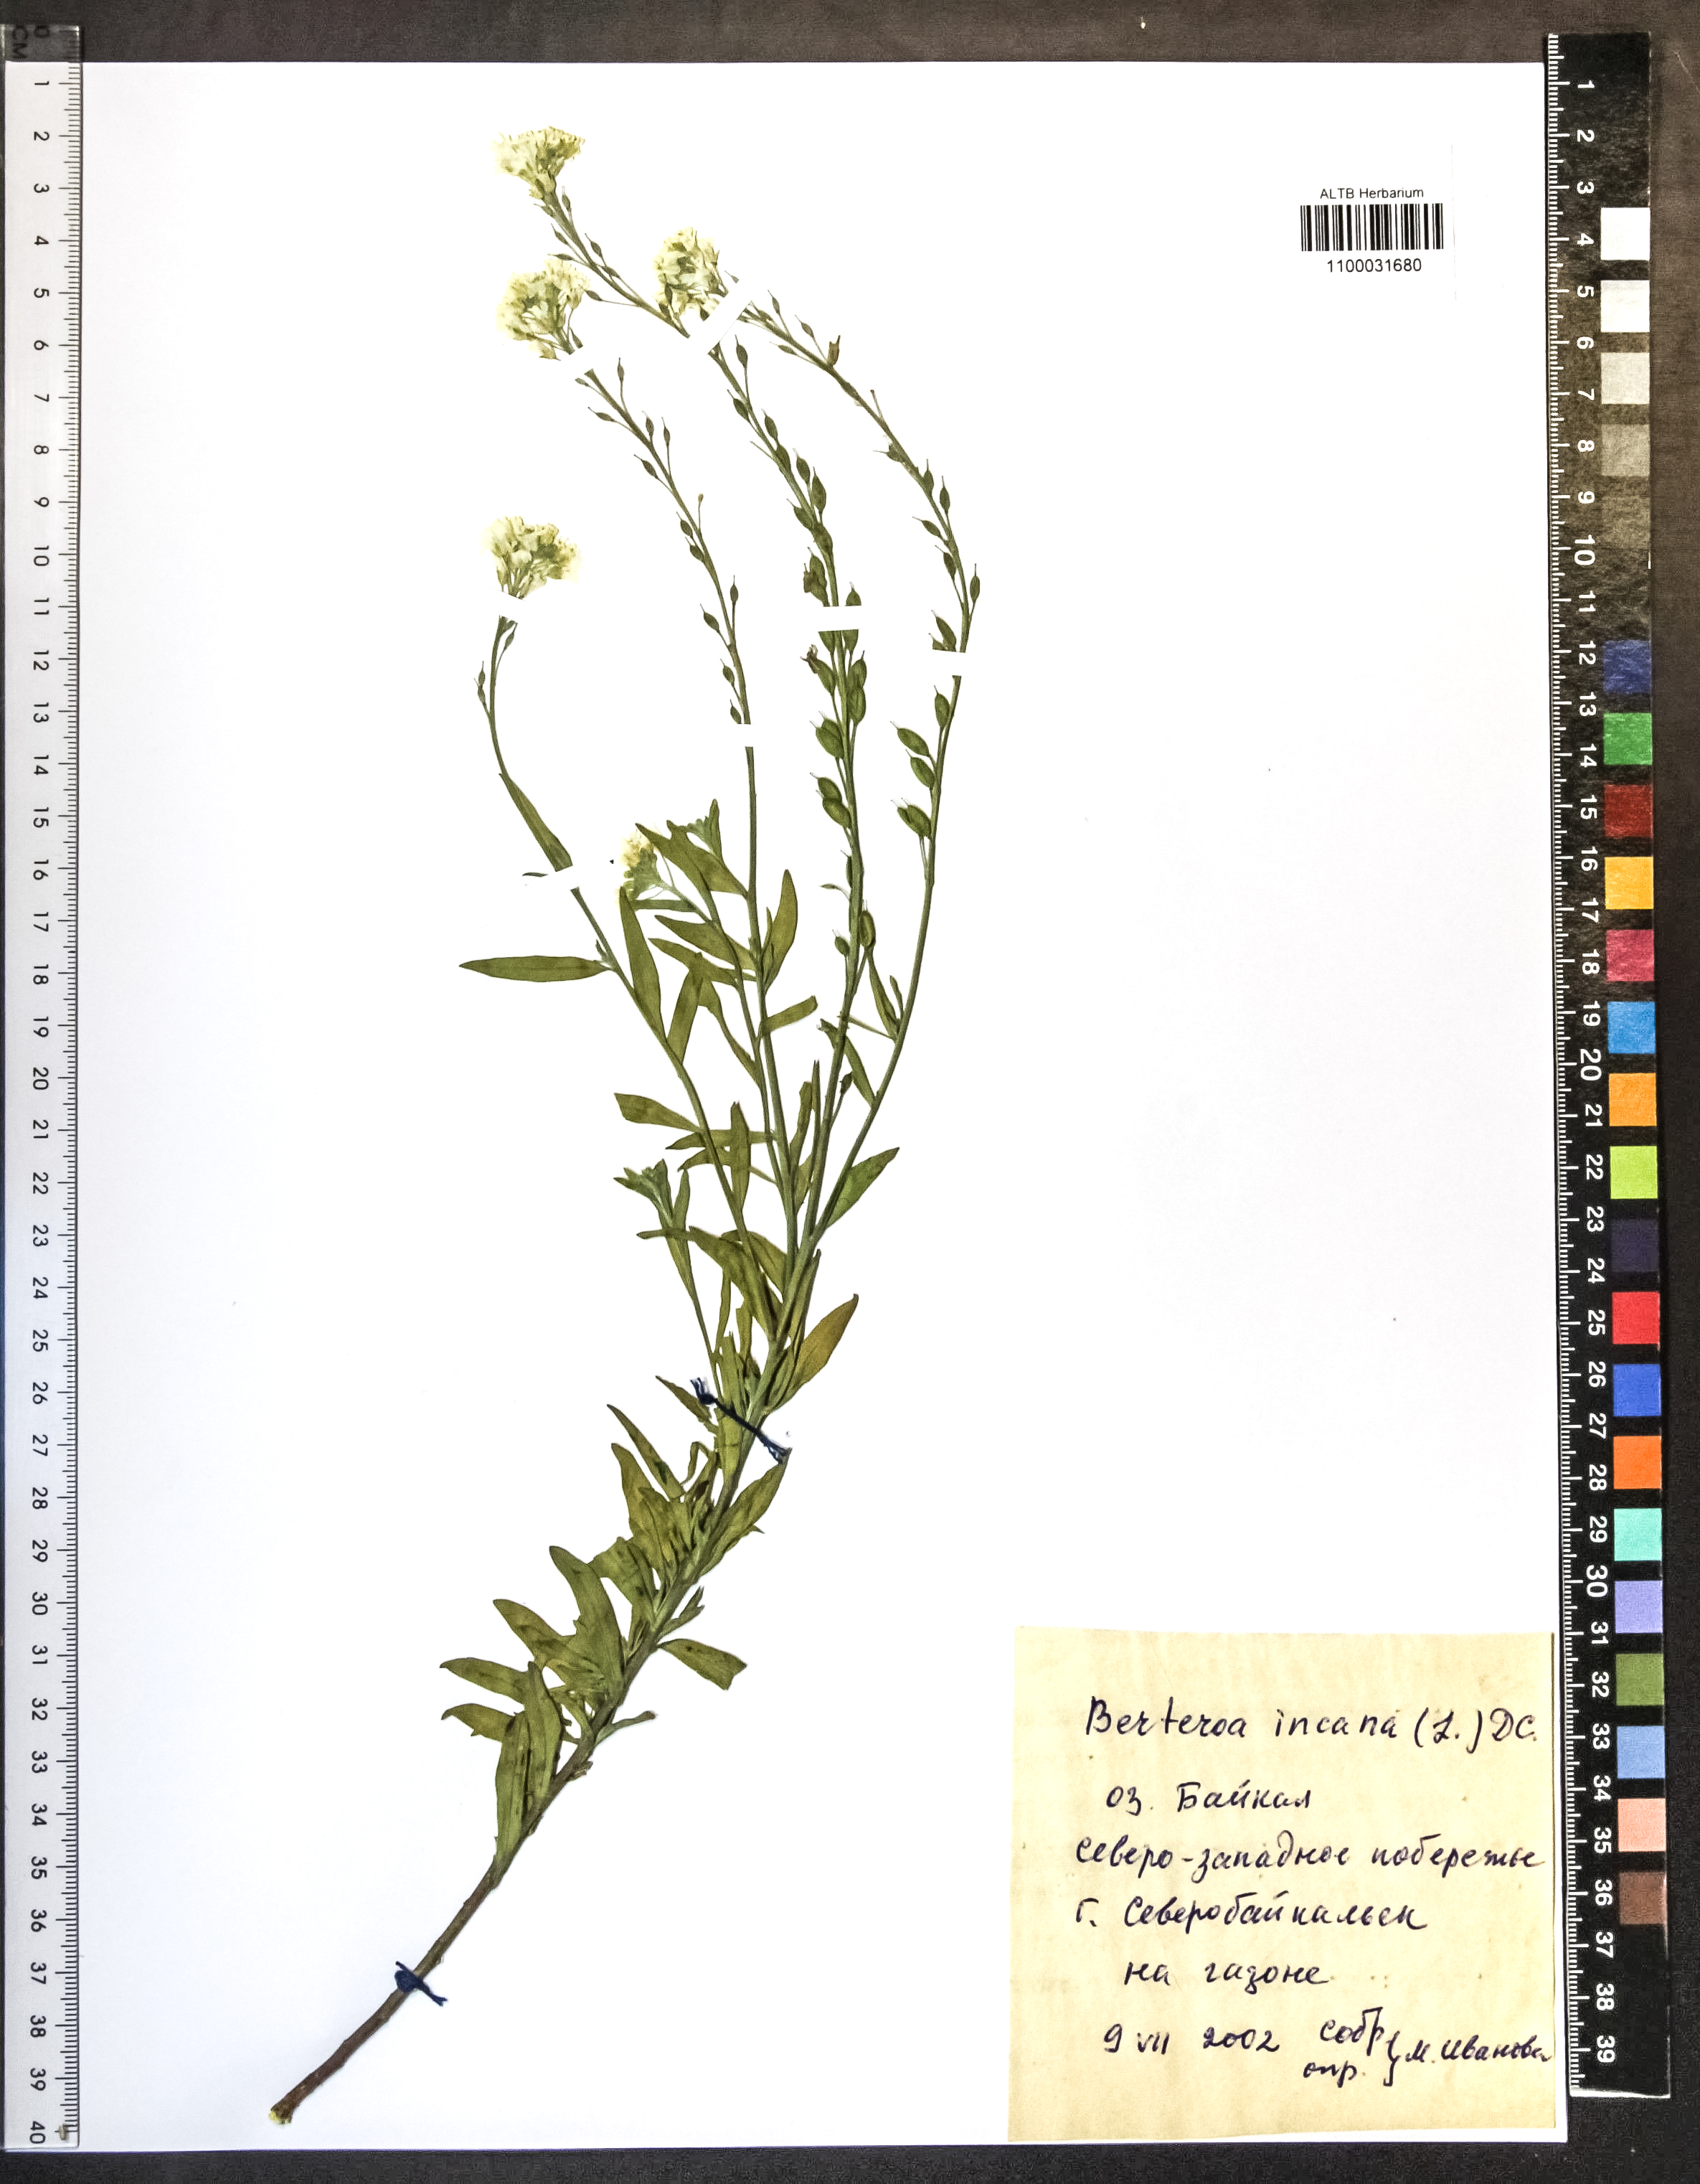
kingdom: Plantae
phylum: Tracheophyta
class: Magnoliopsida
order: Brassicales
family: Brassicaceae
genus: Berteroa
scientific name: Berteroa incana
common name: Hoary alison
